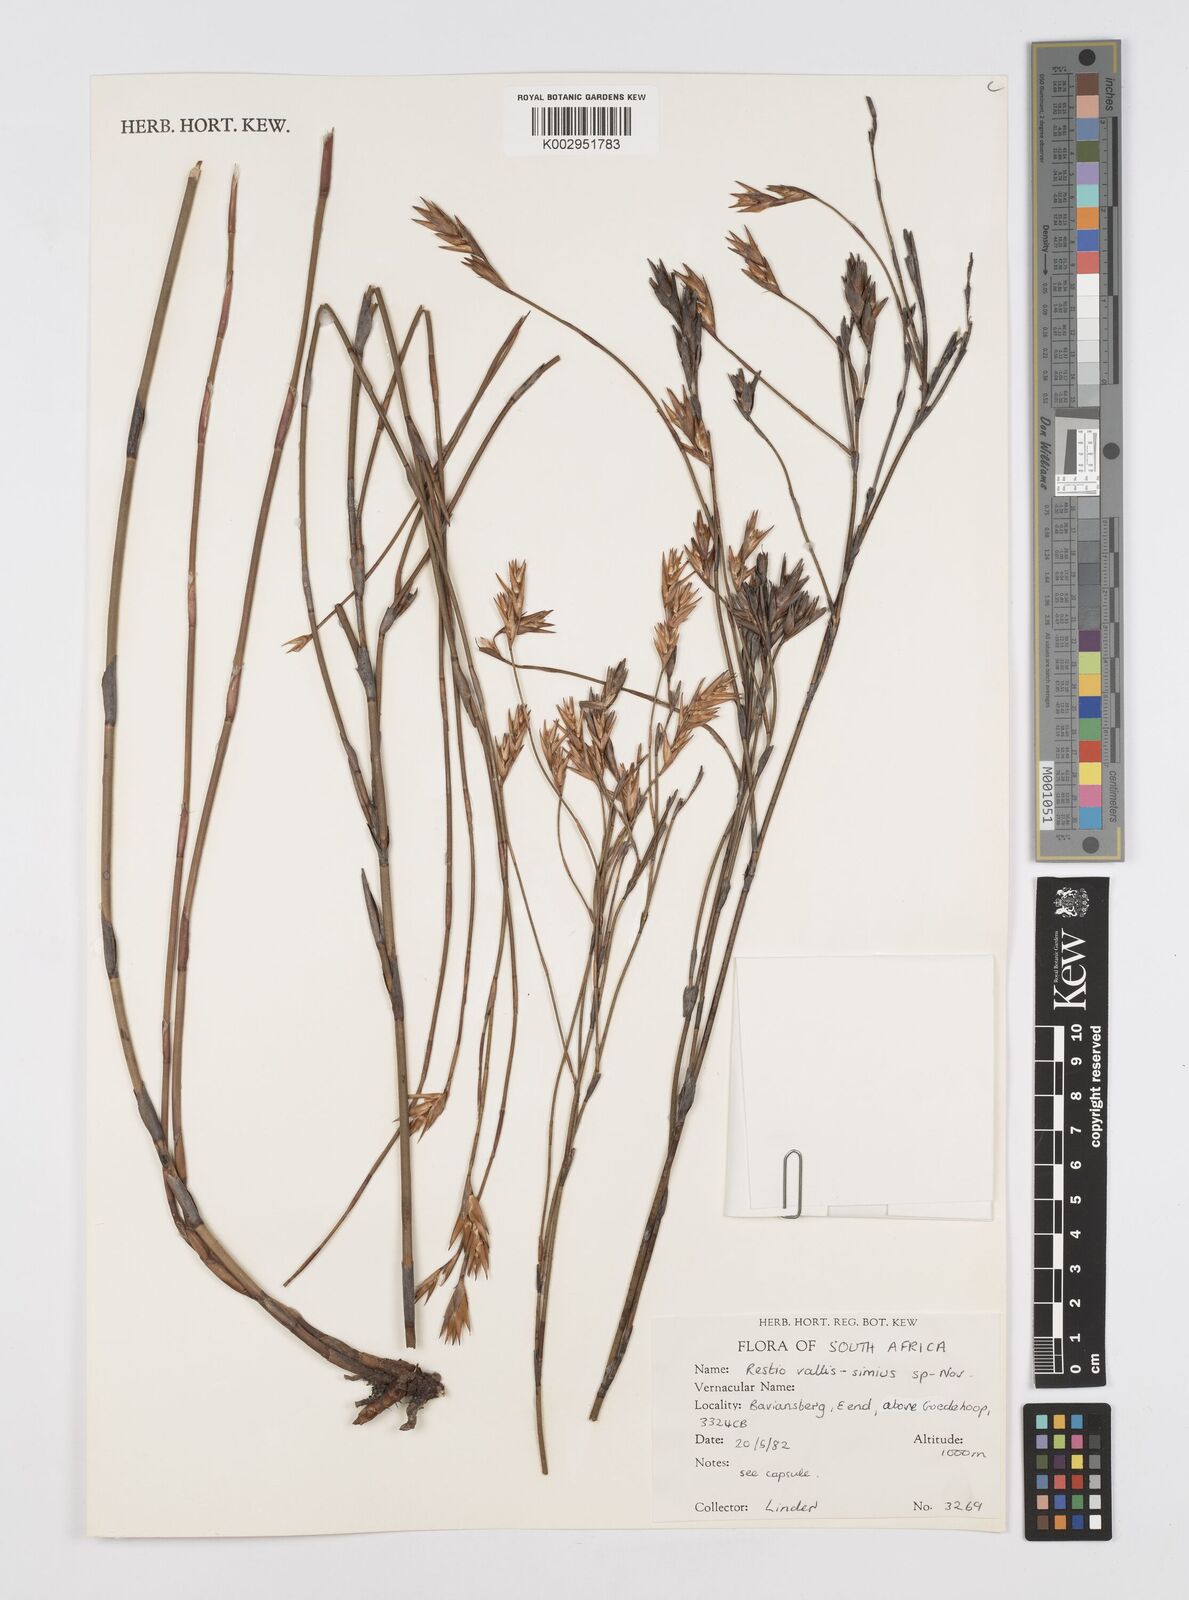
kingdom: Plantae
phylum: Tracheophyta
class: Liliopsida
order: Poales
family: Restionaceae
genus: Restio
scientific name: Restio vallis-simius
